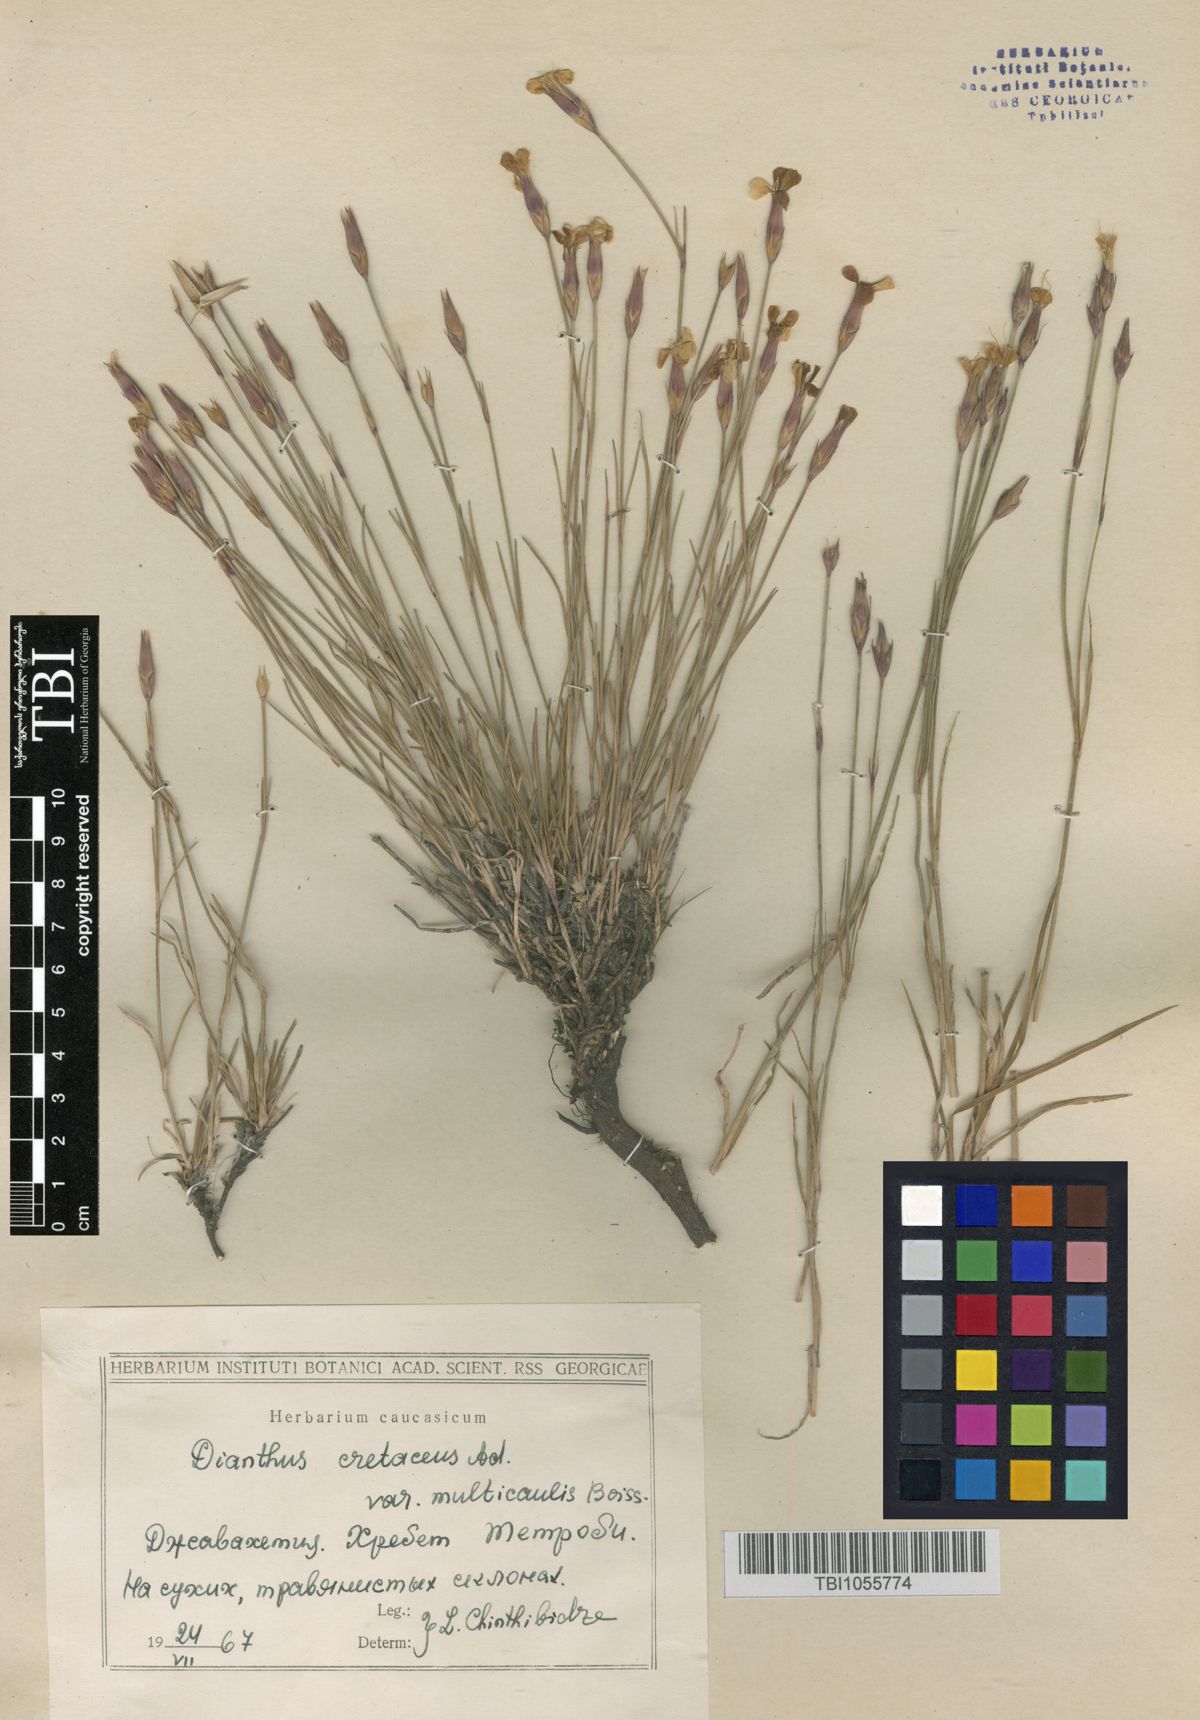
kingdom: Plantae
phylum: Tracheophyta
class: Magnoliopsida
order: Caryophyllales
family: Caryophyllaceae
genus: Dianthus
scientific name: Dianthus cretaceus
